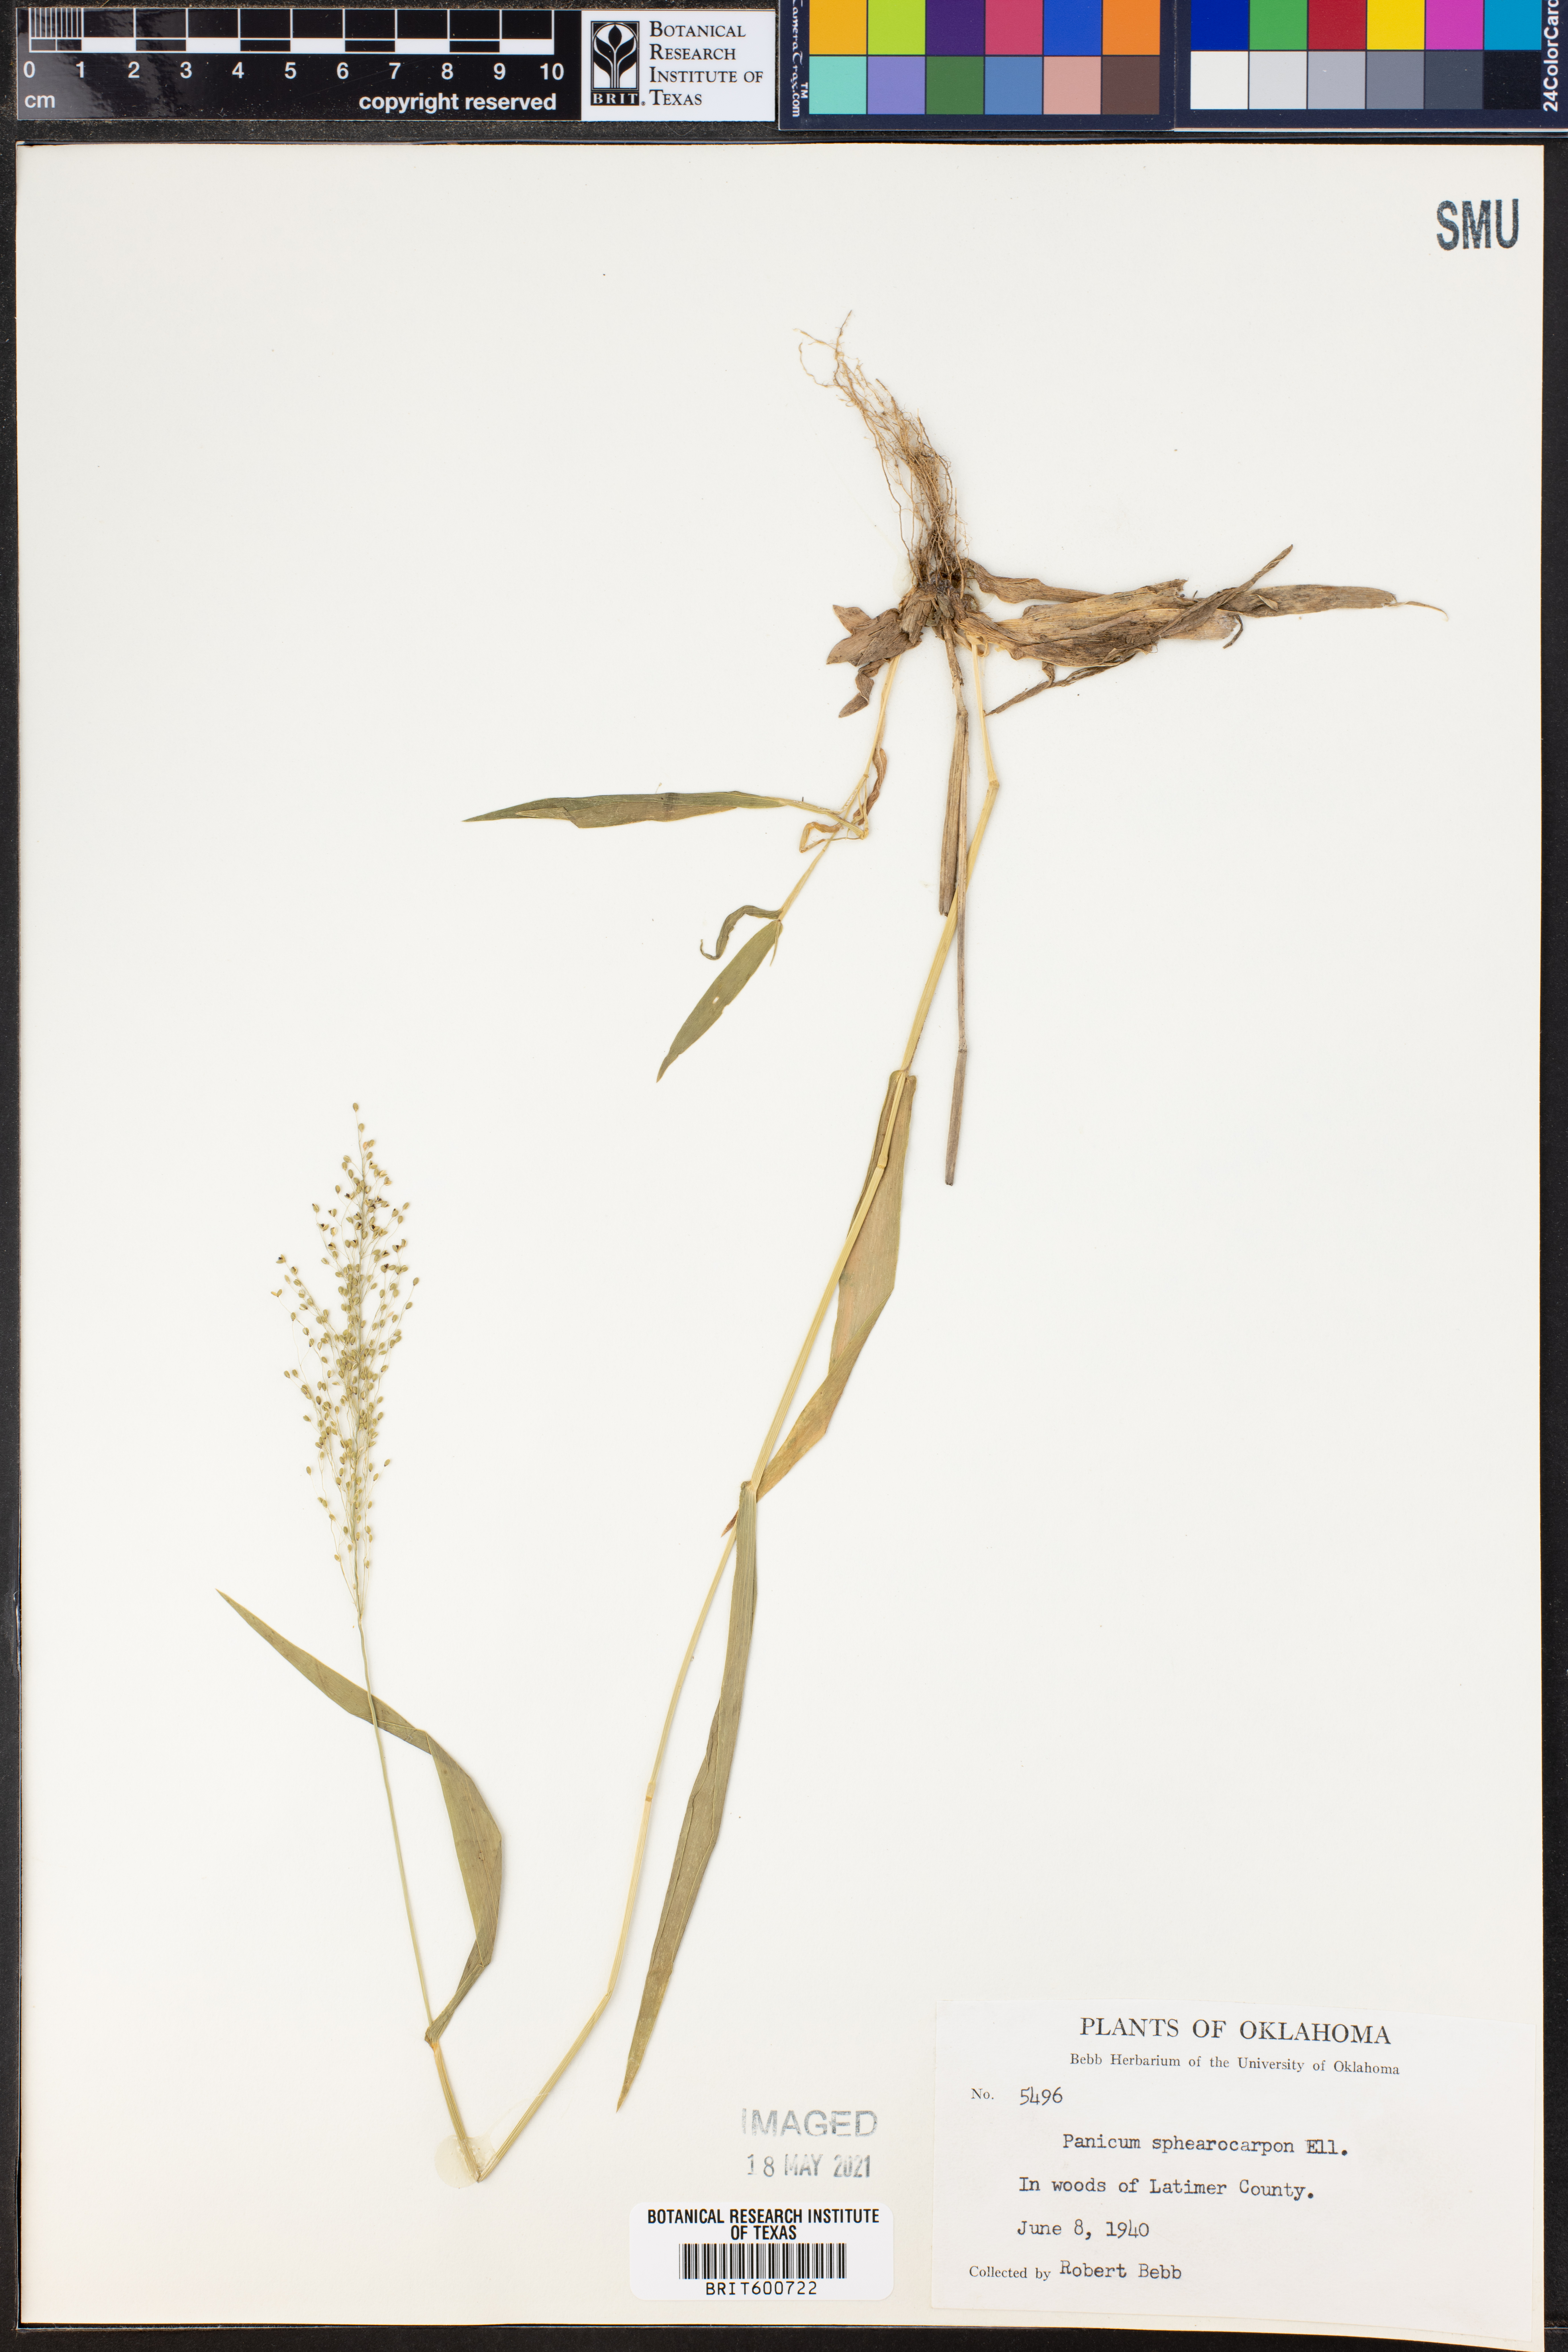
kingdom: Plantae
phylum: Tracheophyta
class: Liliopsida
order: Poales
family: Poaceae
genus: Dichanthelium
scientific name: Dichanthelium sphaerocarpon
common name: Round-fruited panicgrass
